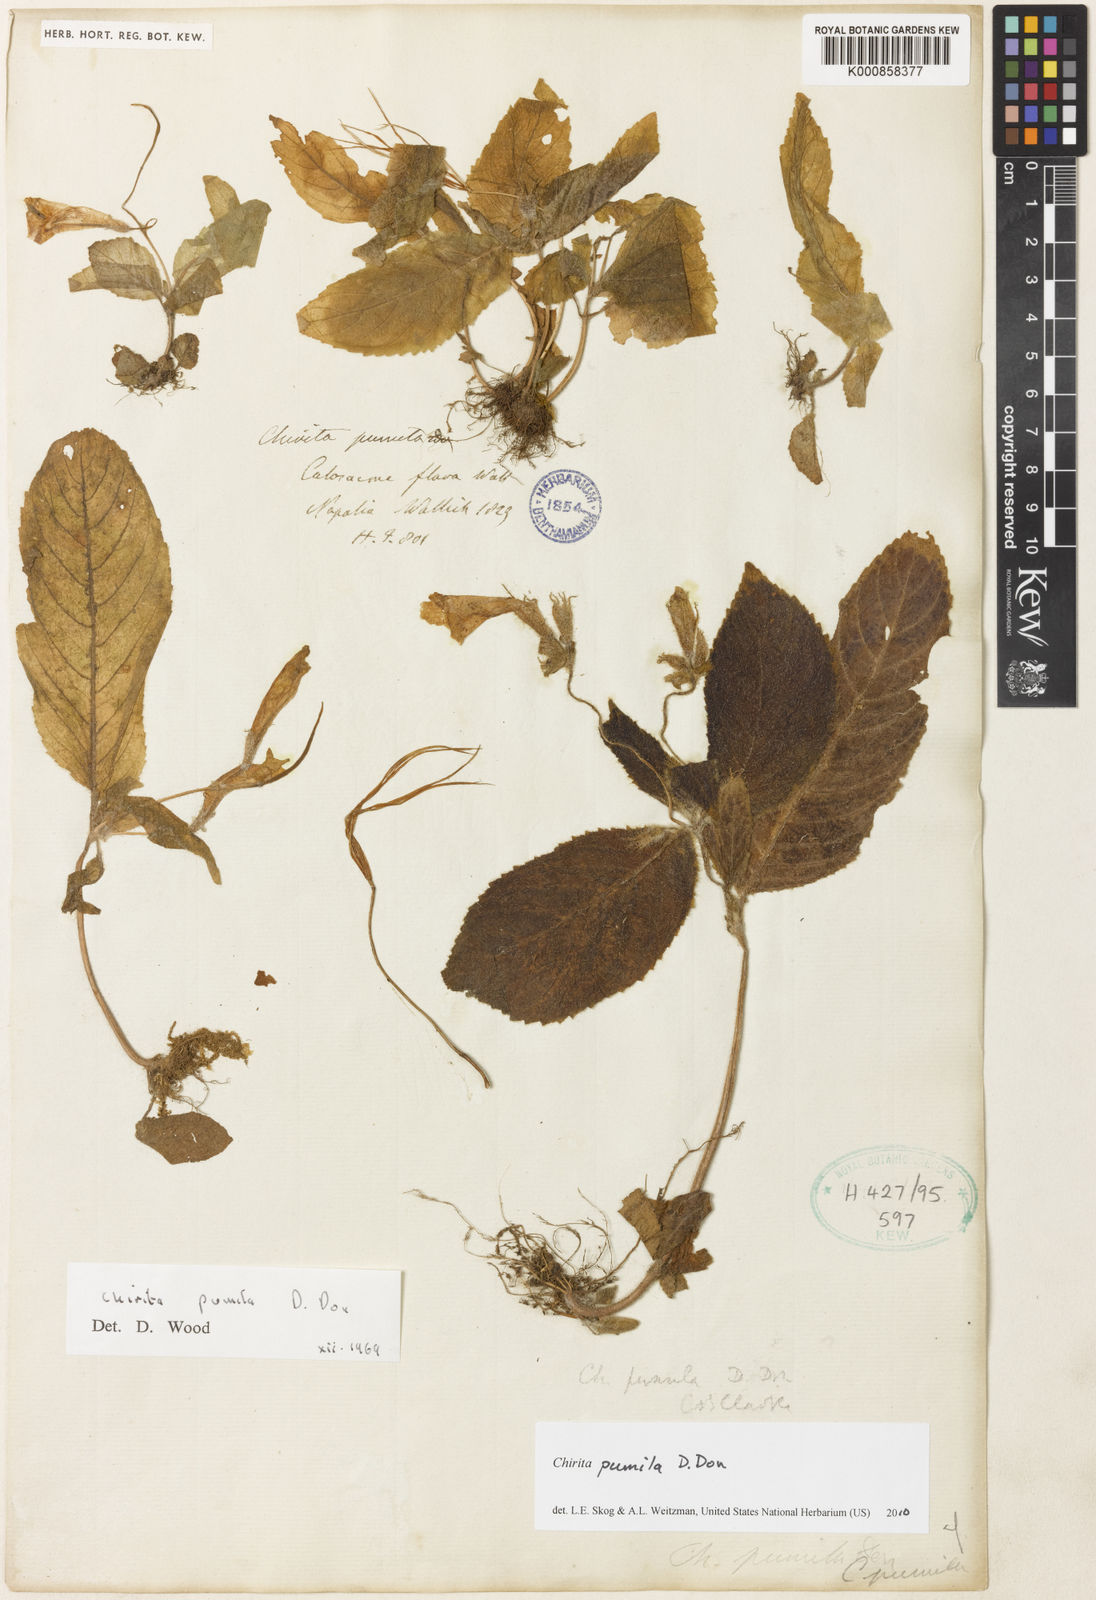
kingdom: Plantae
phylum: Tracheophyta
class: Magnoliopsida
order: Lamiales
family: Gesneriaceae
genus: Henckelia
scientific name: Henckelia pumila
